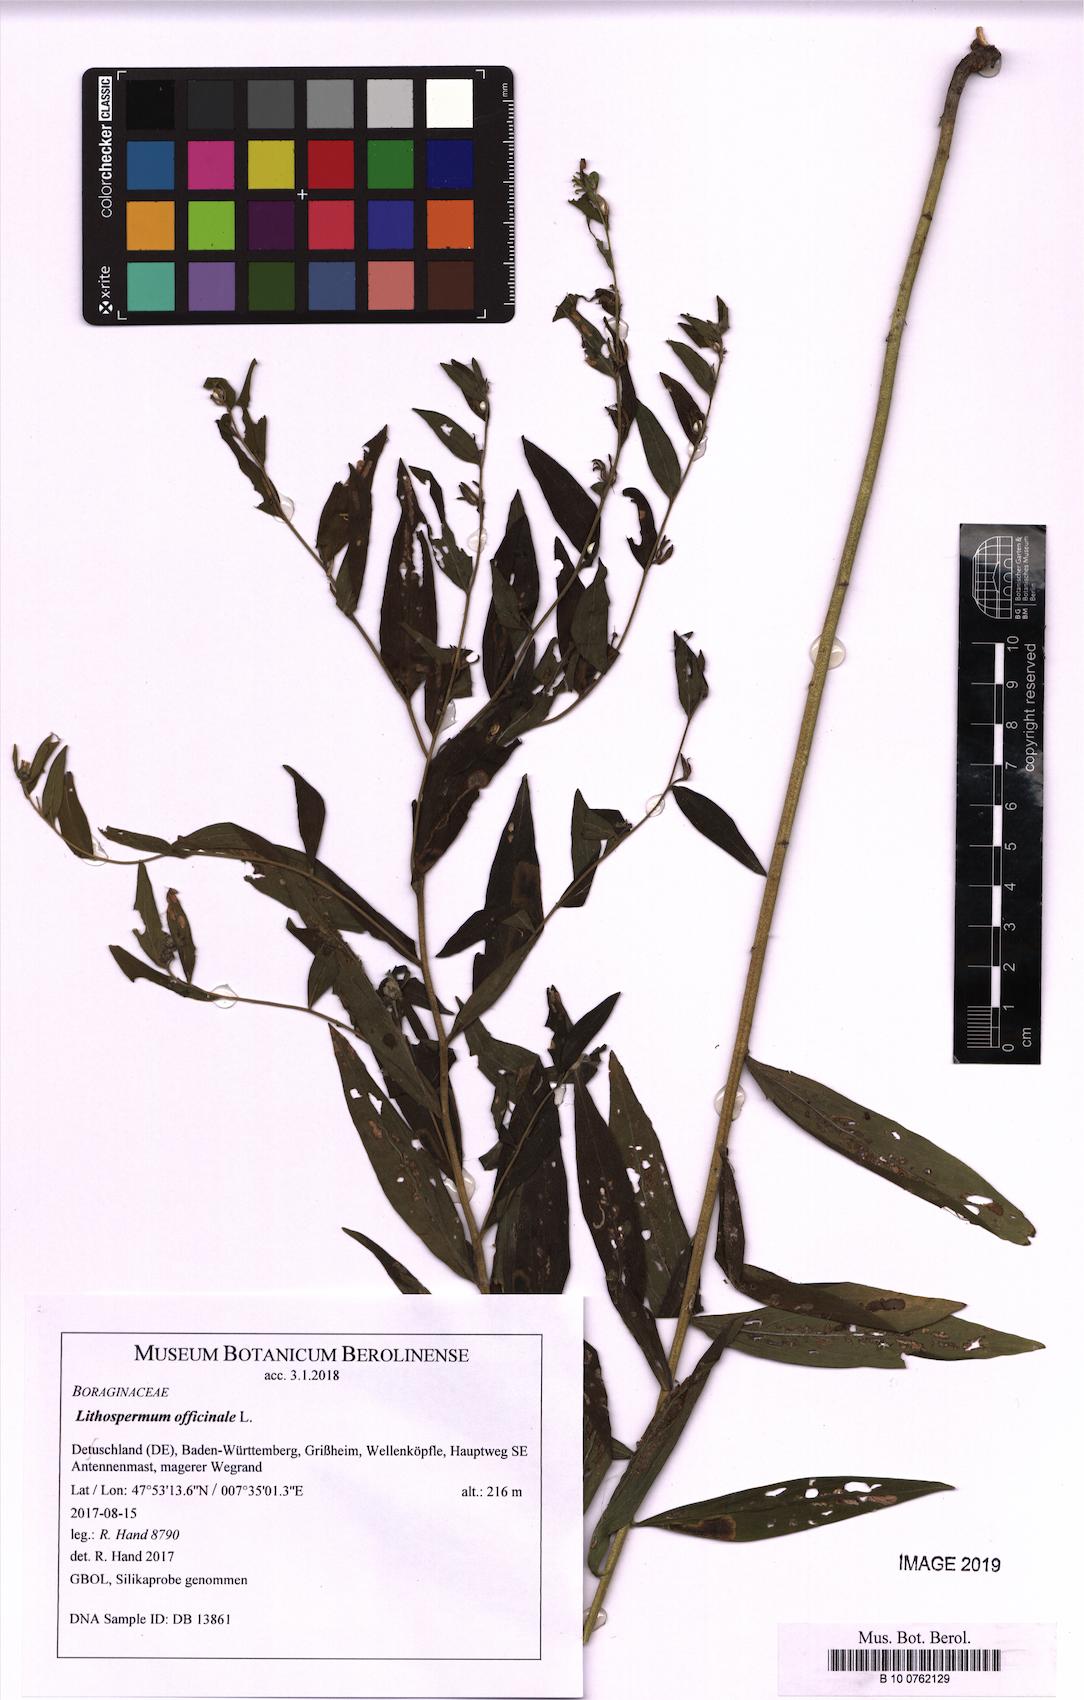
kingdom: Plantae
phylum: Tracheophyta
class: Magnoliopsida
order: Boraginales
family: Boraginaceae
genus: Lithospermum
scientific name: Lithospermum officinale
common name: Common gromwell
